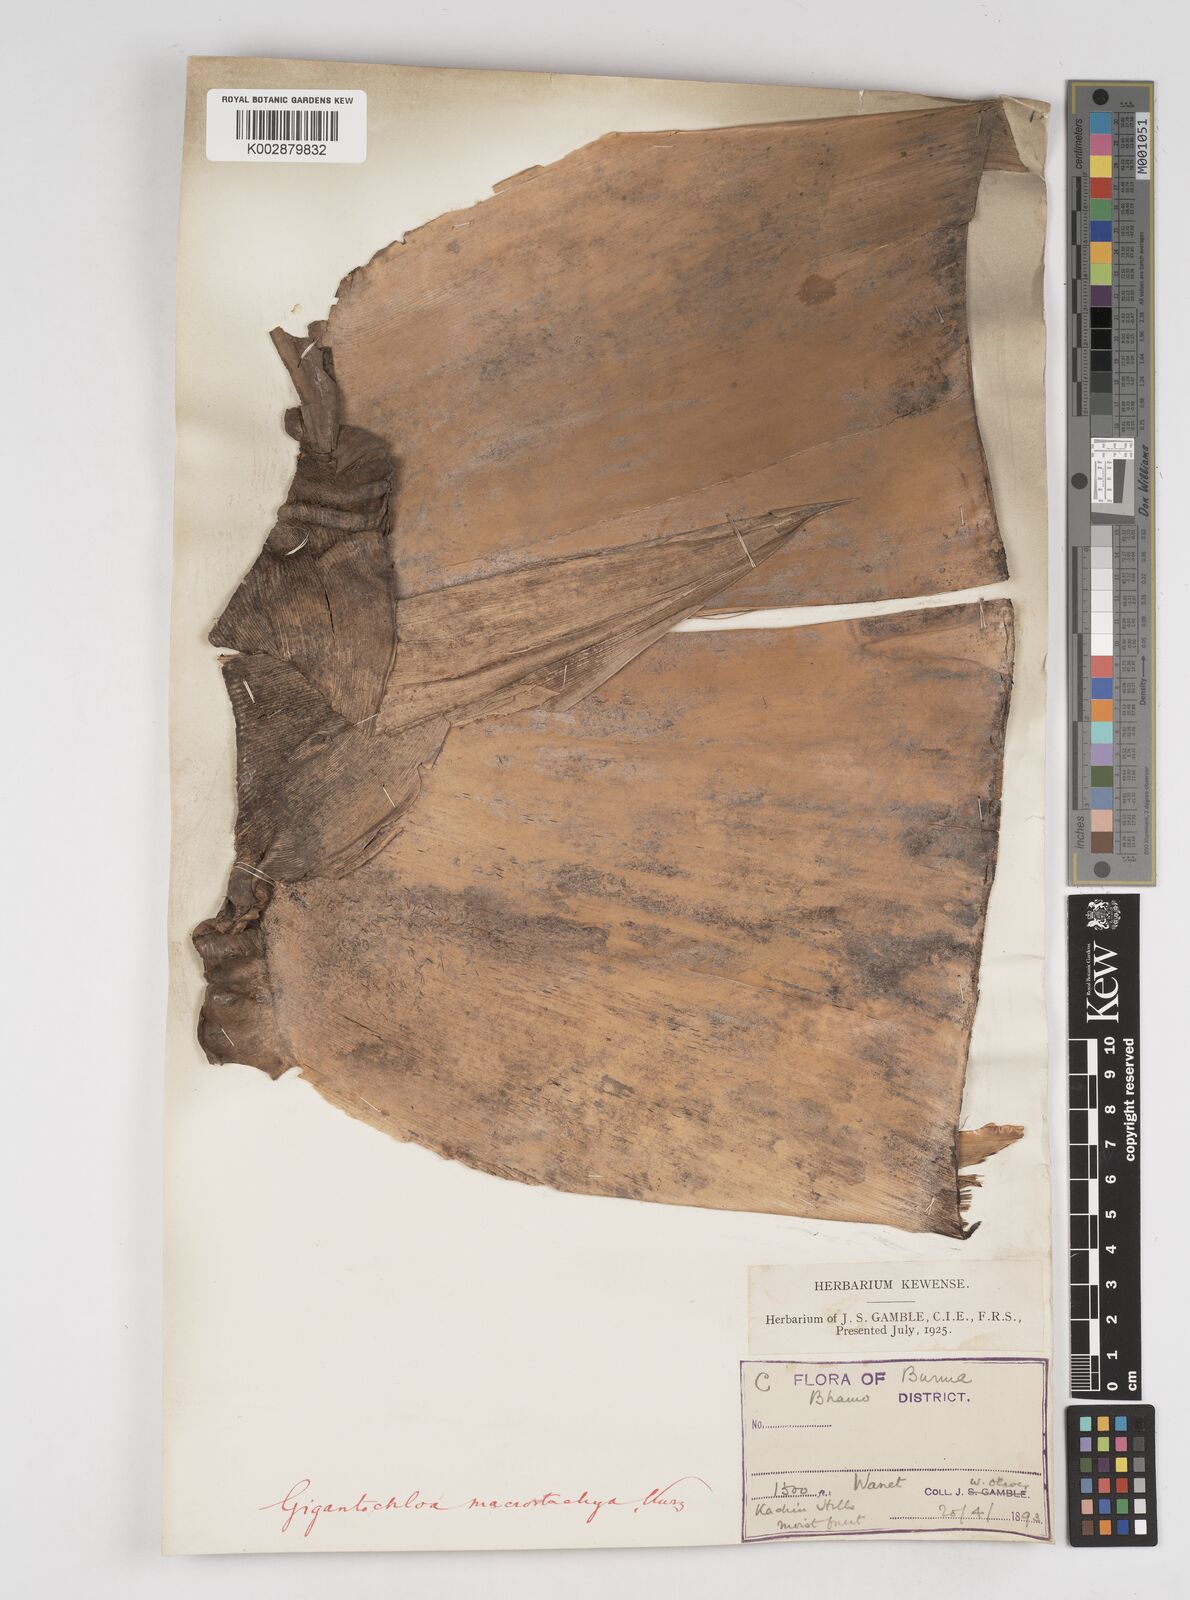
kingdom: Plantae
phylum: Tracheophyta
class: Liliopsida
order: Poales
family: Poaceae
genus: Gigantochloa
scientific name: Gigantochloa macrostachya
